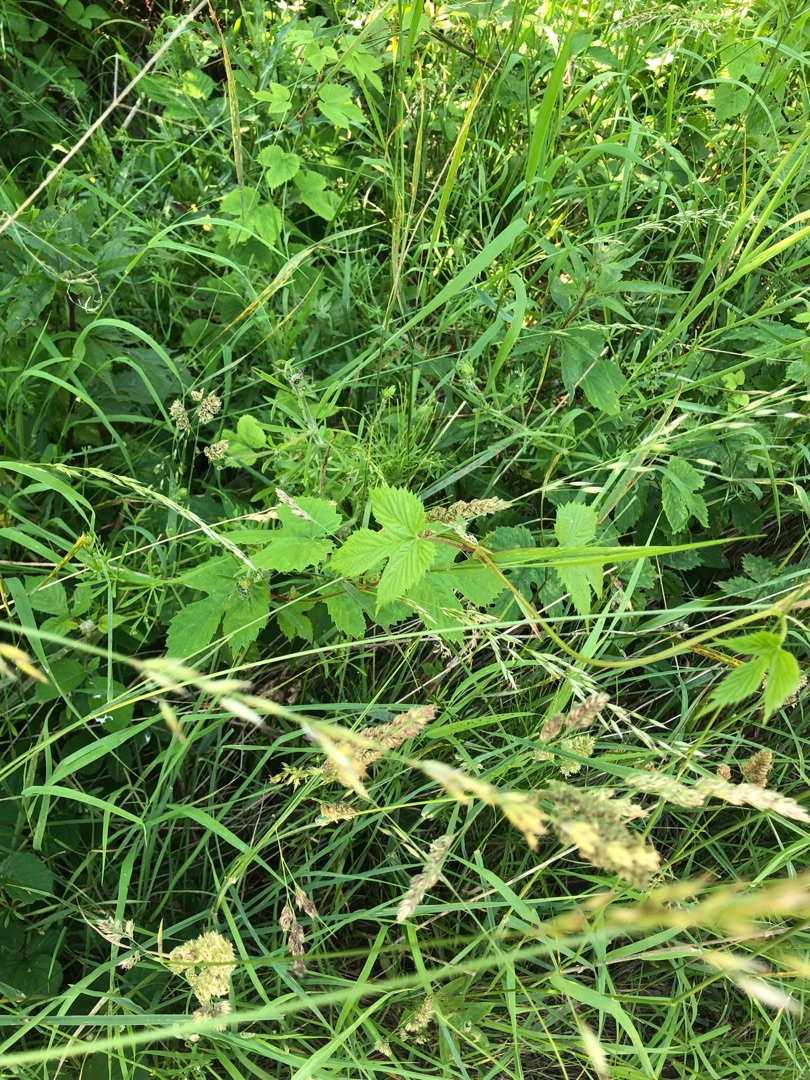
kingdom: Plantae
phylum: Tracheophyta
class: Magnoliopsida
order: Rosales
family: Cannabaceae
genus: Humulus
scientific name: Humulus lupulus
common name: Humle
